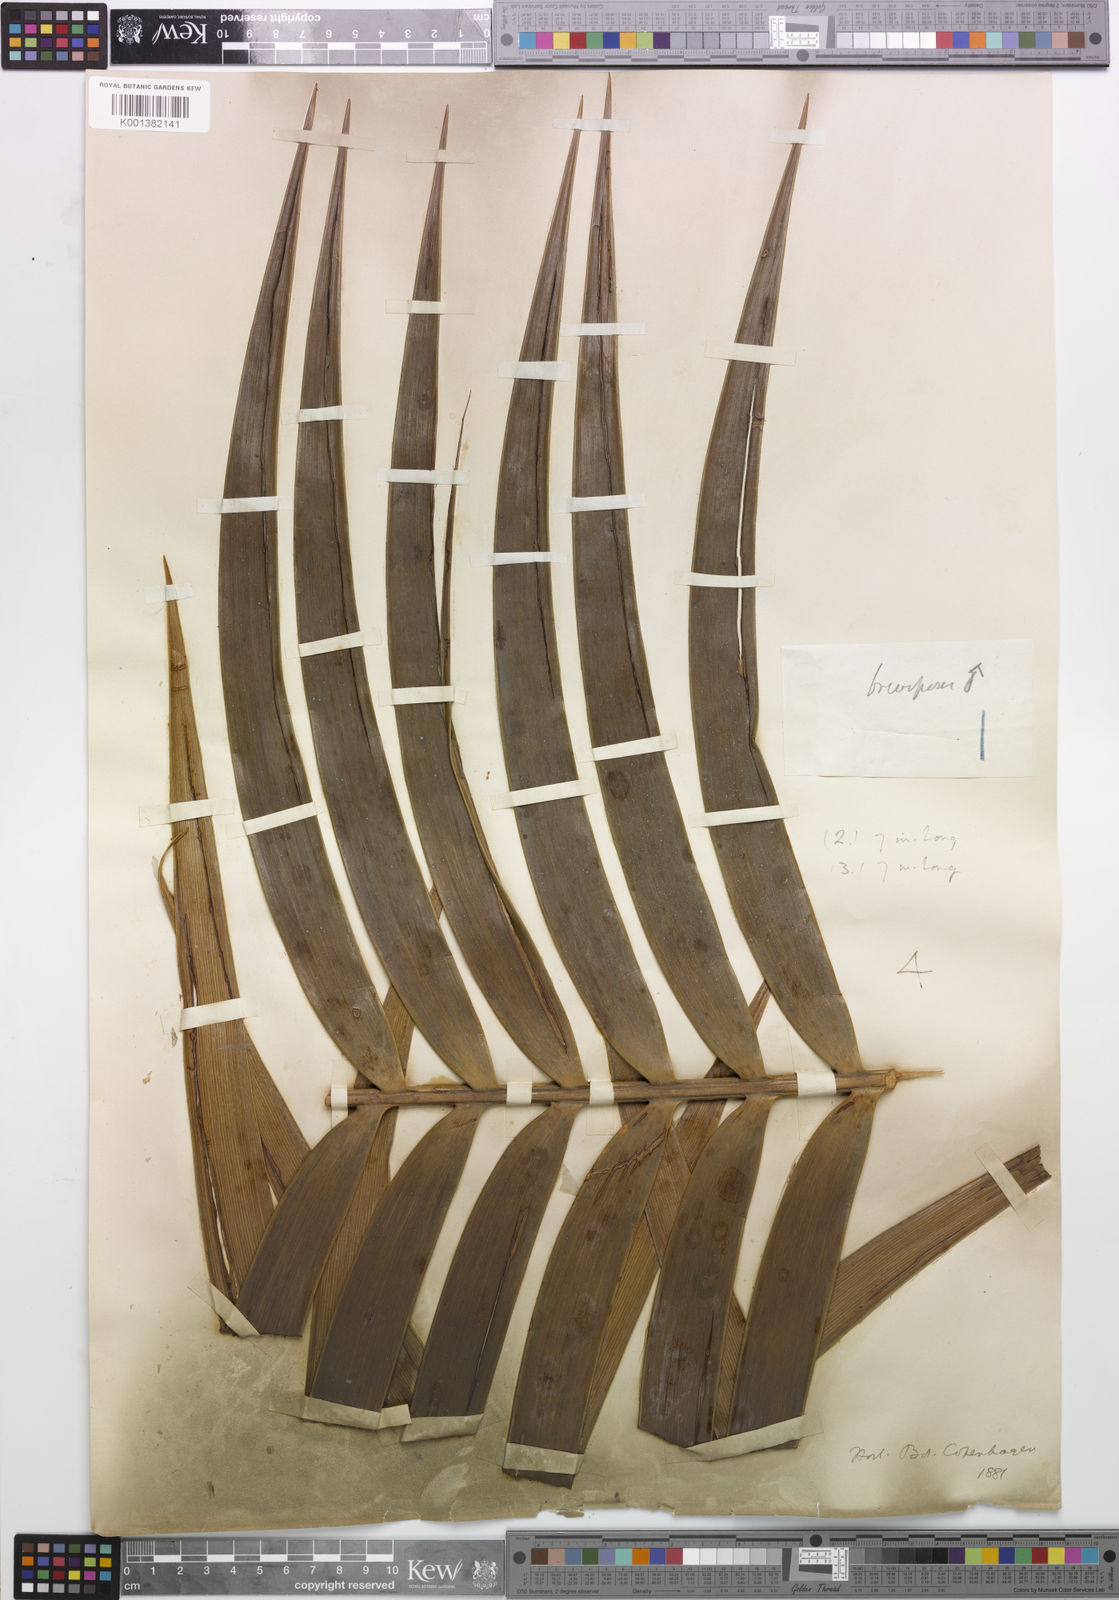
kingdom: Plantae
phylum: Tracheophyta
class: Cycadopsida
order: Cycadales
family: Zamiaceae
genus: Ceratozamia
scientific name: Ceratozamia mexicana
